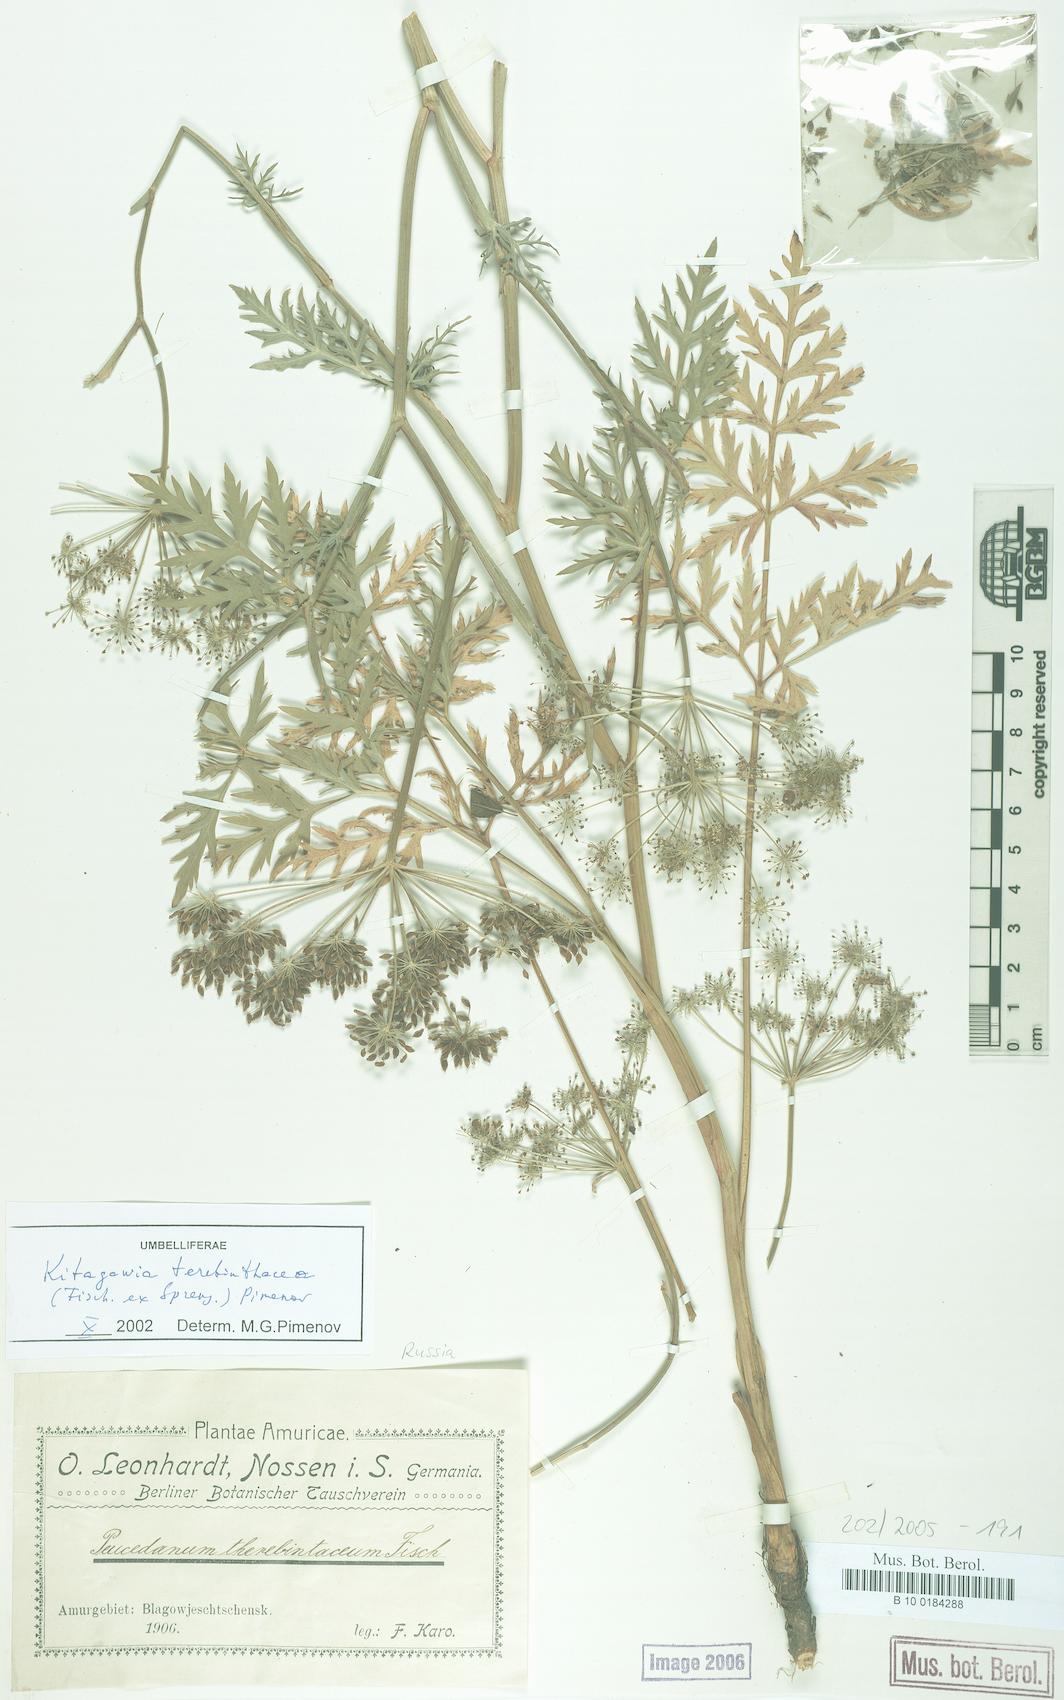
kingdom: Plantae
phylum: Tracheophyta
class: Magnoliopsida
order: Apiales
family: Apiaceae
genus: Kitagawia
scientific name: Kitagawia terebinthacea
